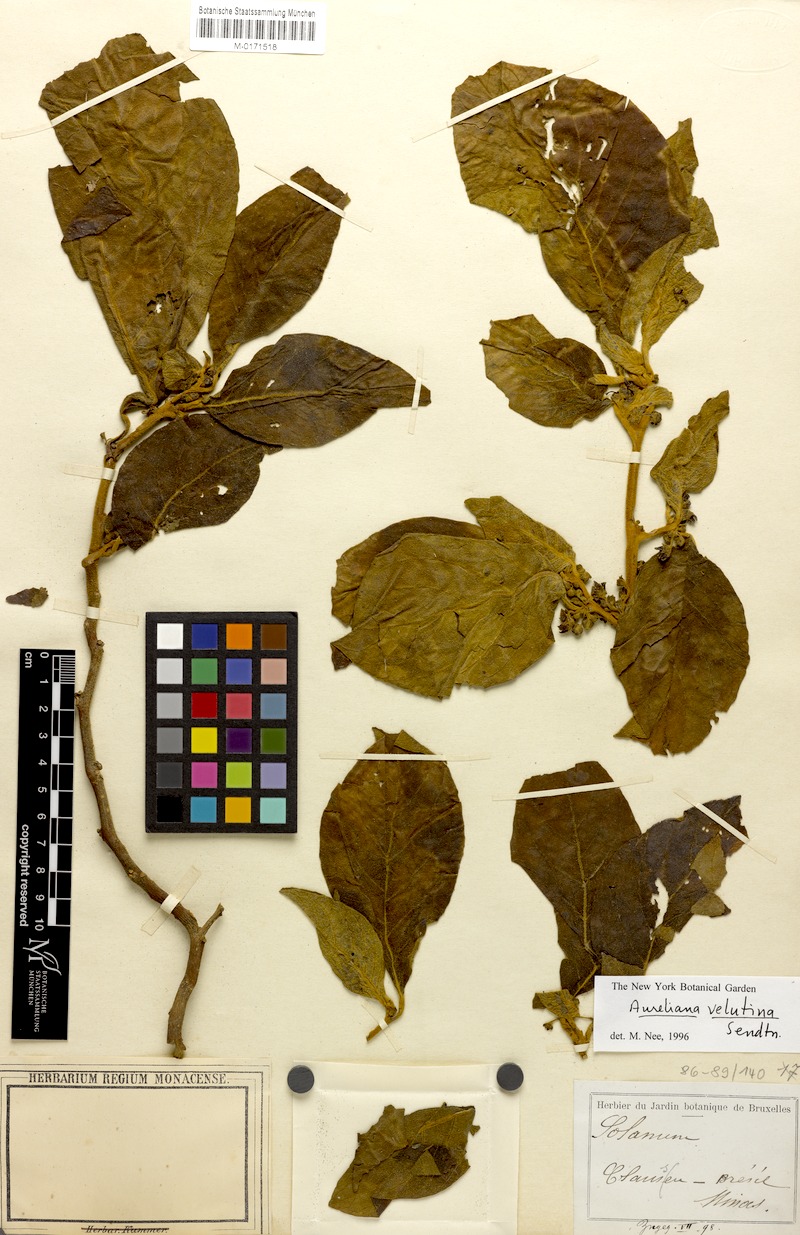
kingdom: Plantae
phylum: Tracheophyta
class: Magnoliopsida
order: Solanales
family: Solanaceae
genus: Athenaea
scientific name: Athenaea velutina
